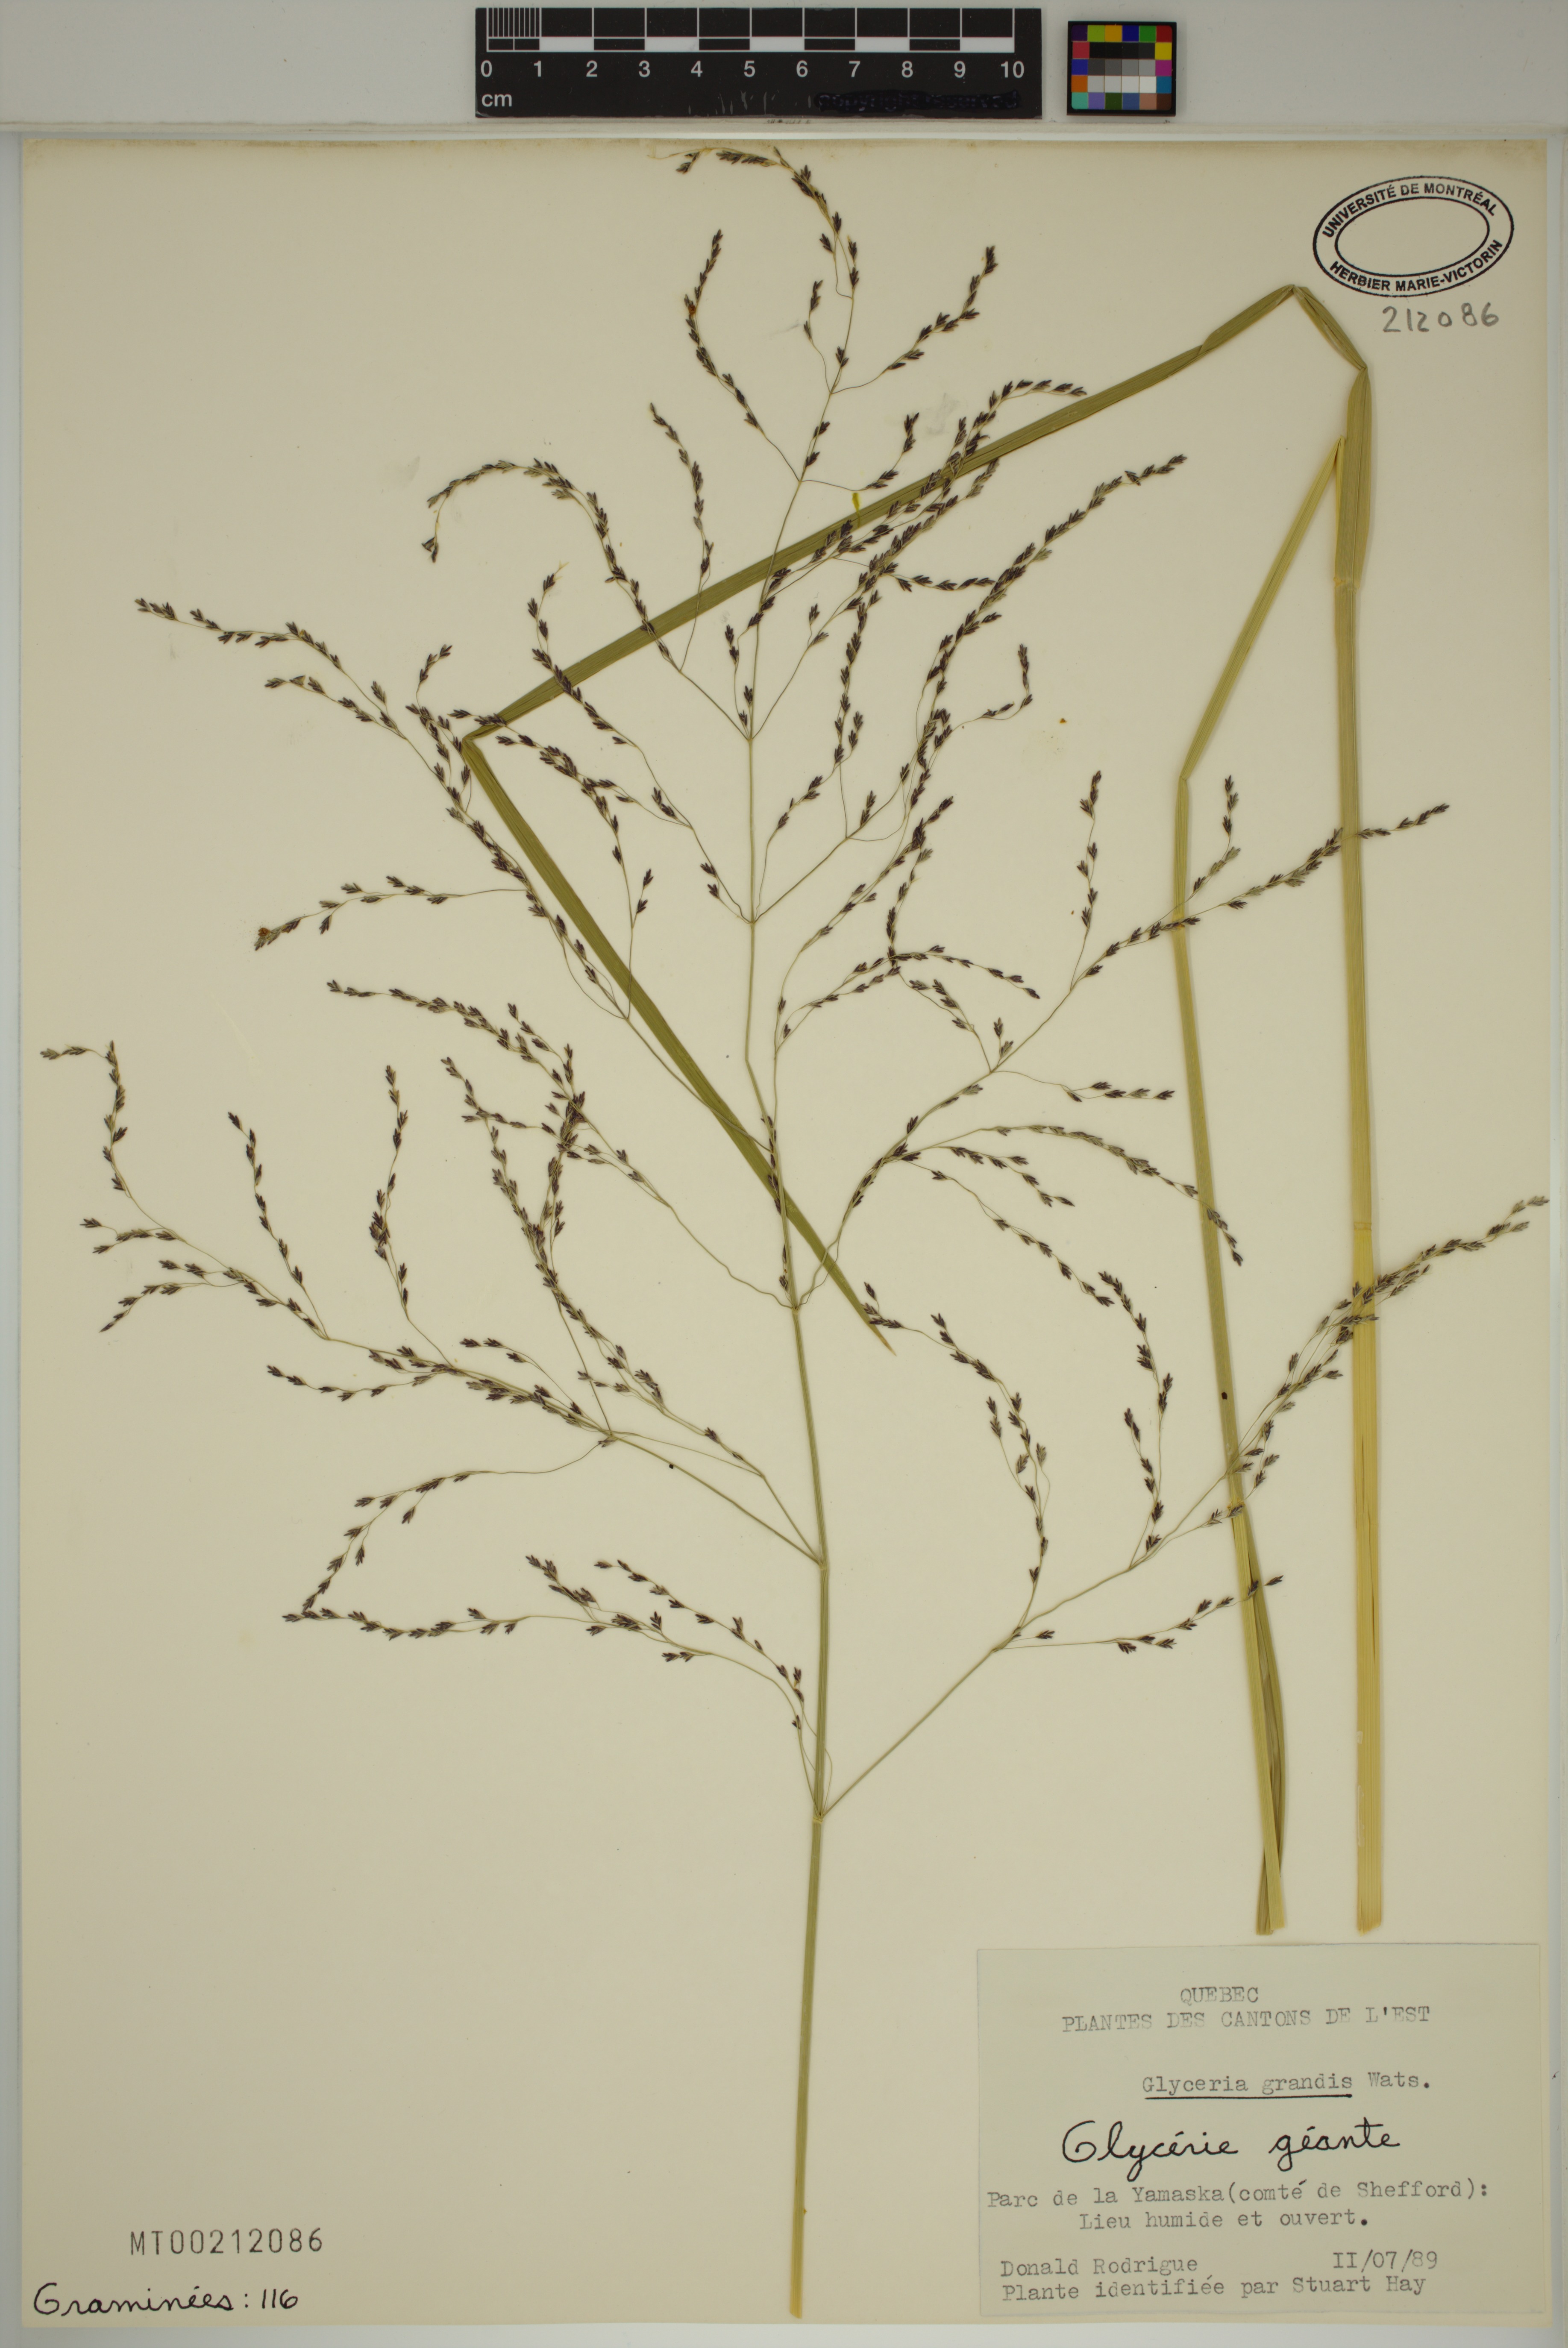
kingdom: Plantae
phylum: Tracheophyta
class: Liliopsida
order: Poales
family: Poaceae
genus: Glyceria
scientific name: Glyceria grandis
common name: American glyceria
